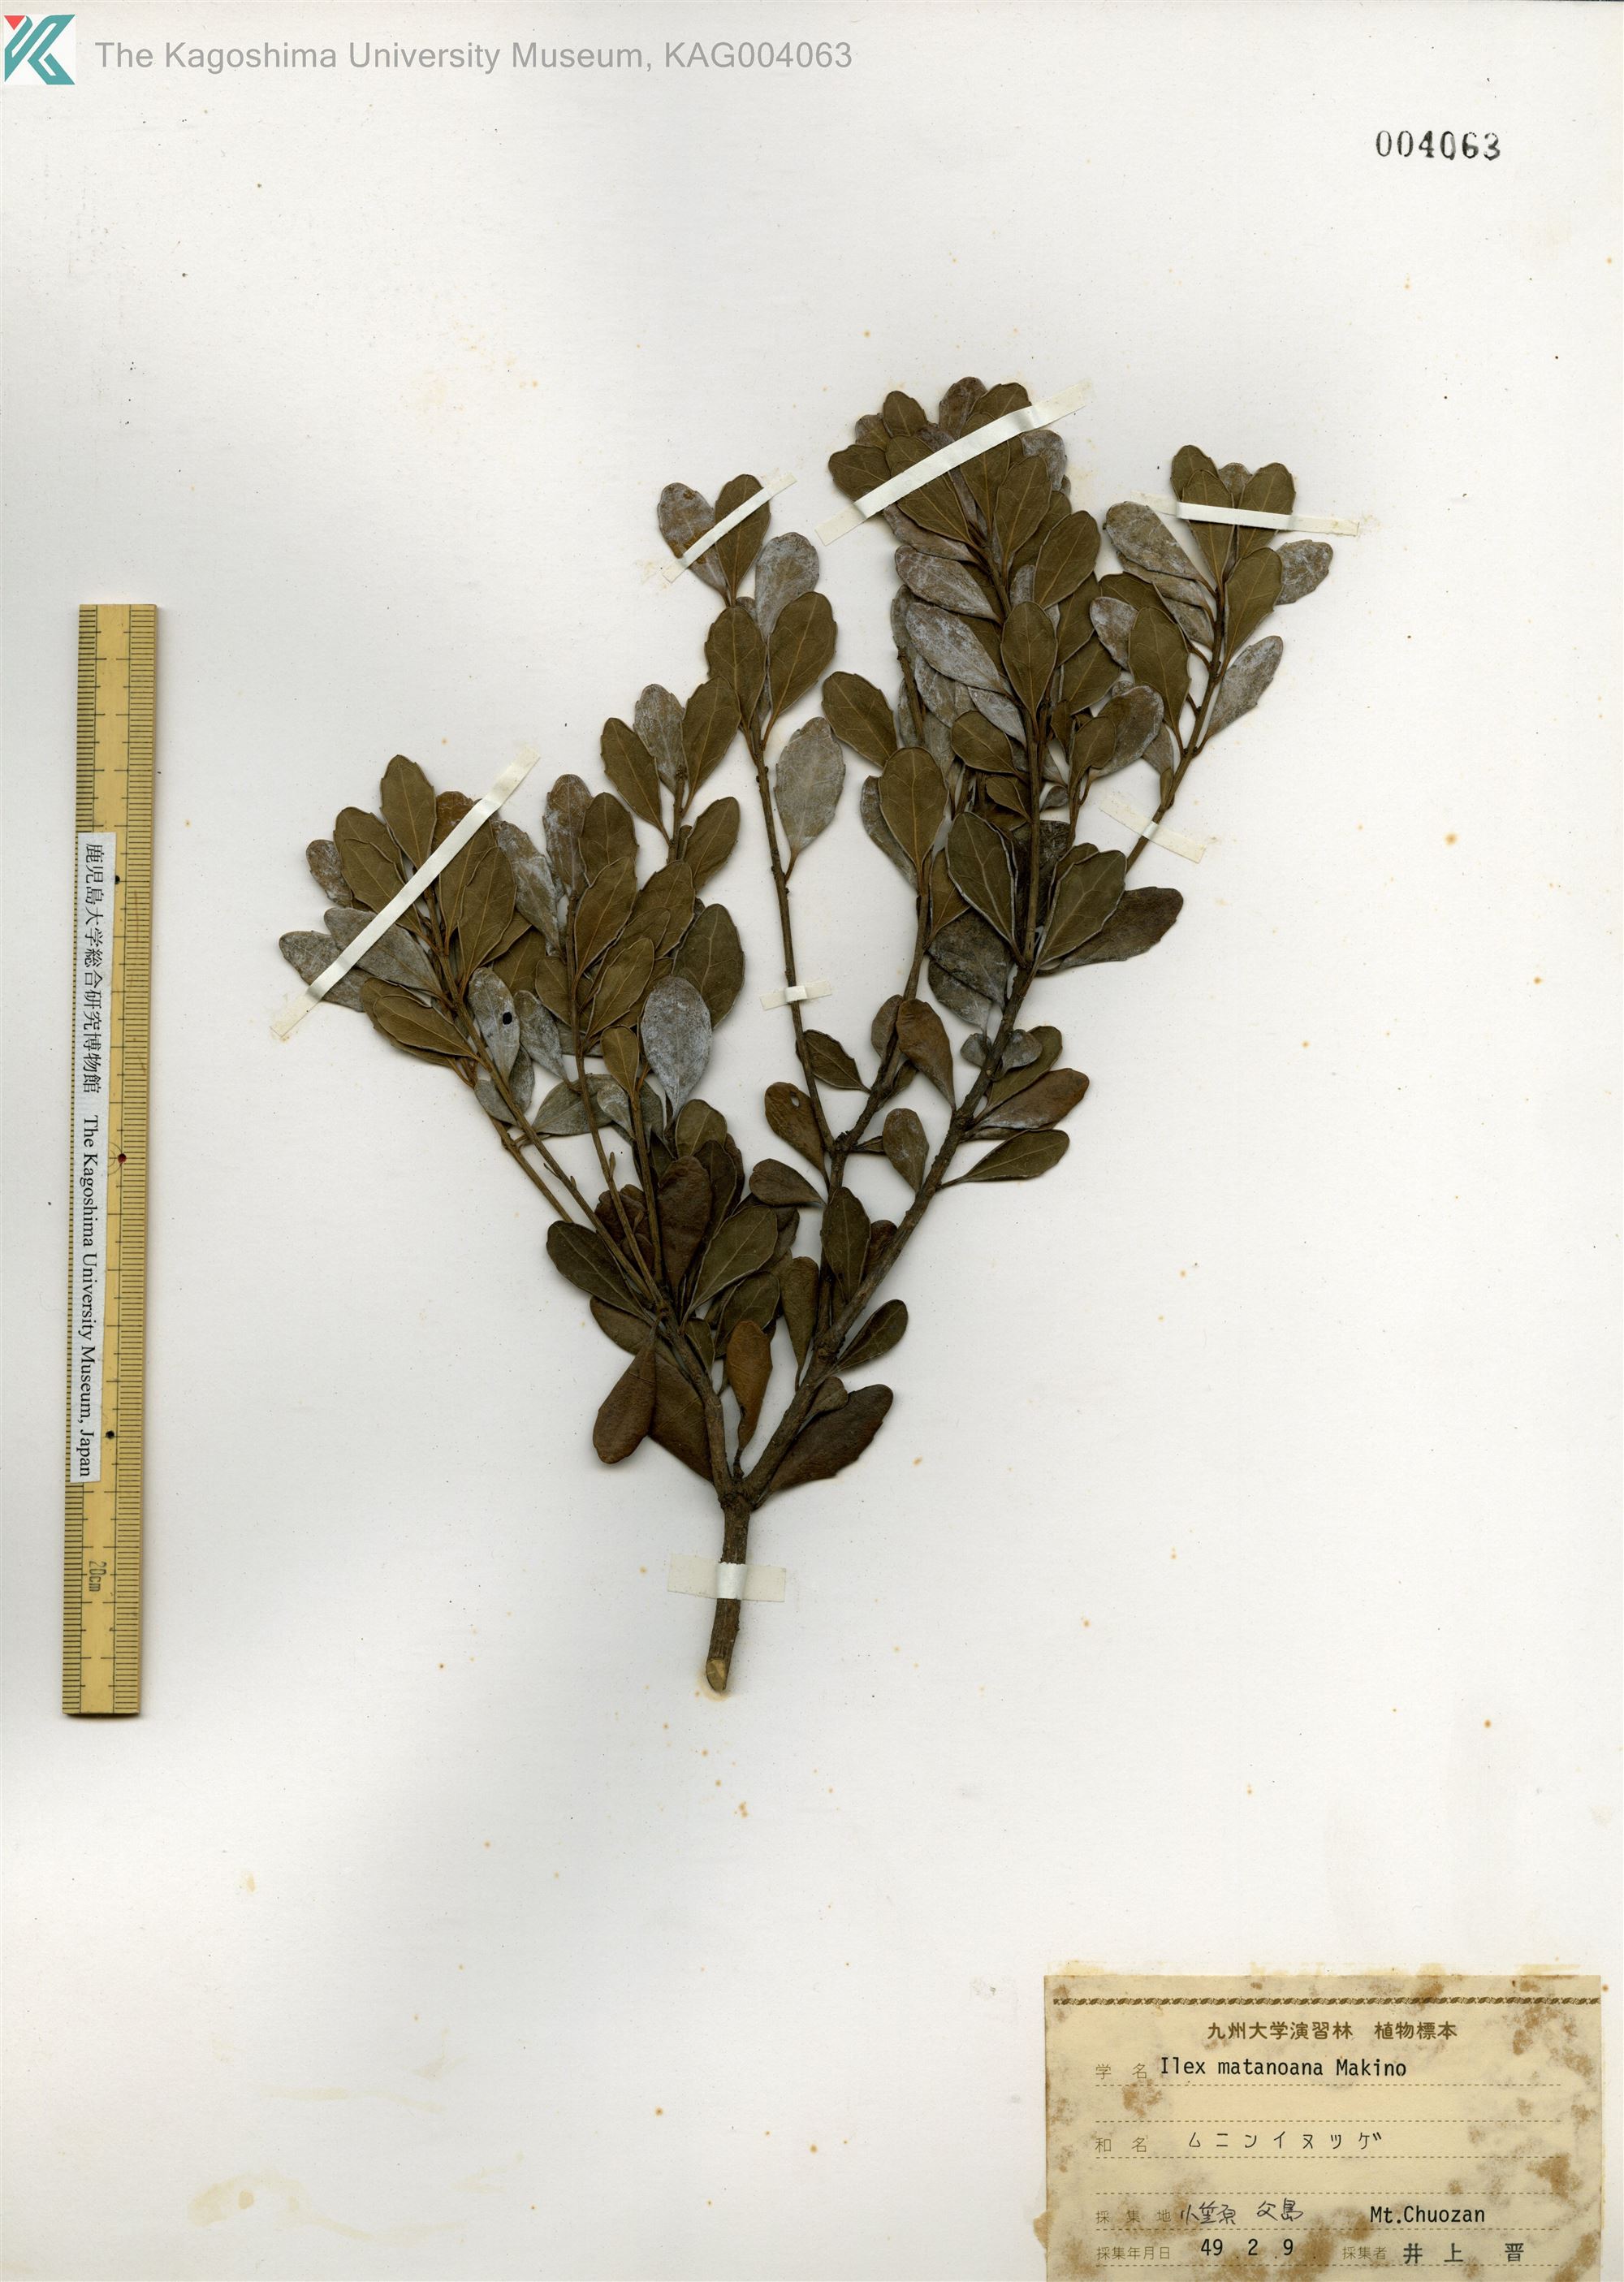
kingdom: Plantae
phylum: Tracheophyta
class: Magnoliopsida
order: Aquifoliales
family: Aquifoliaceae
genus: Ilex
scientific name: Ilex matanoana
